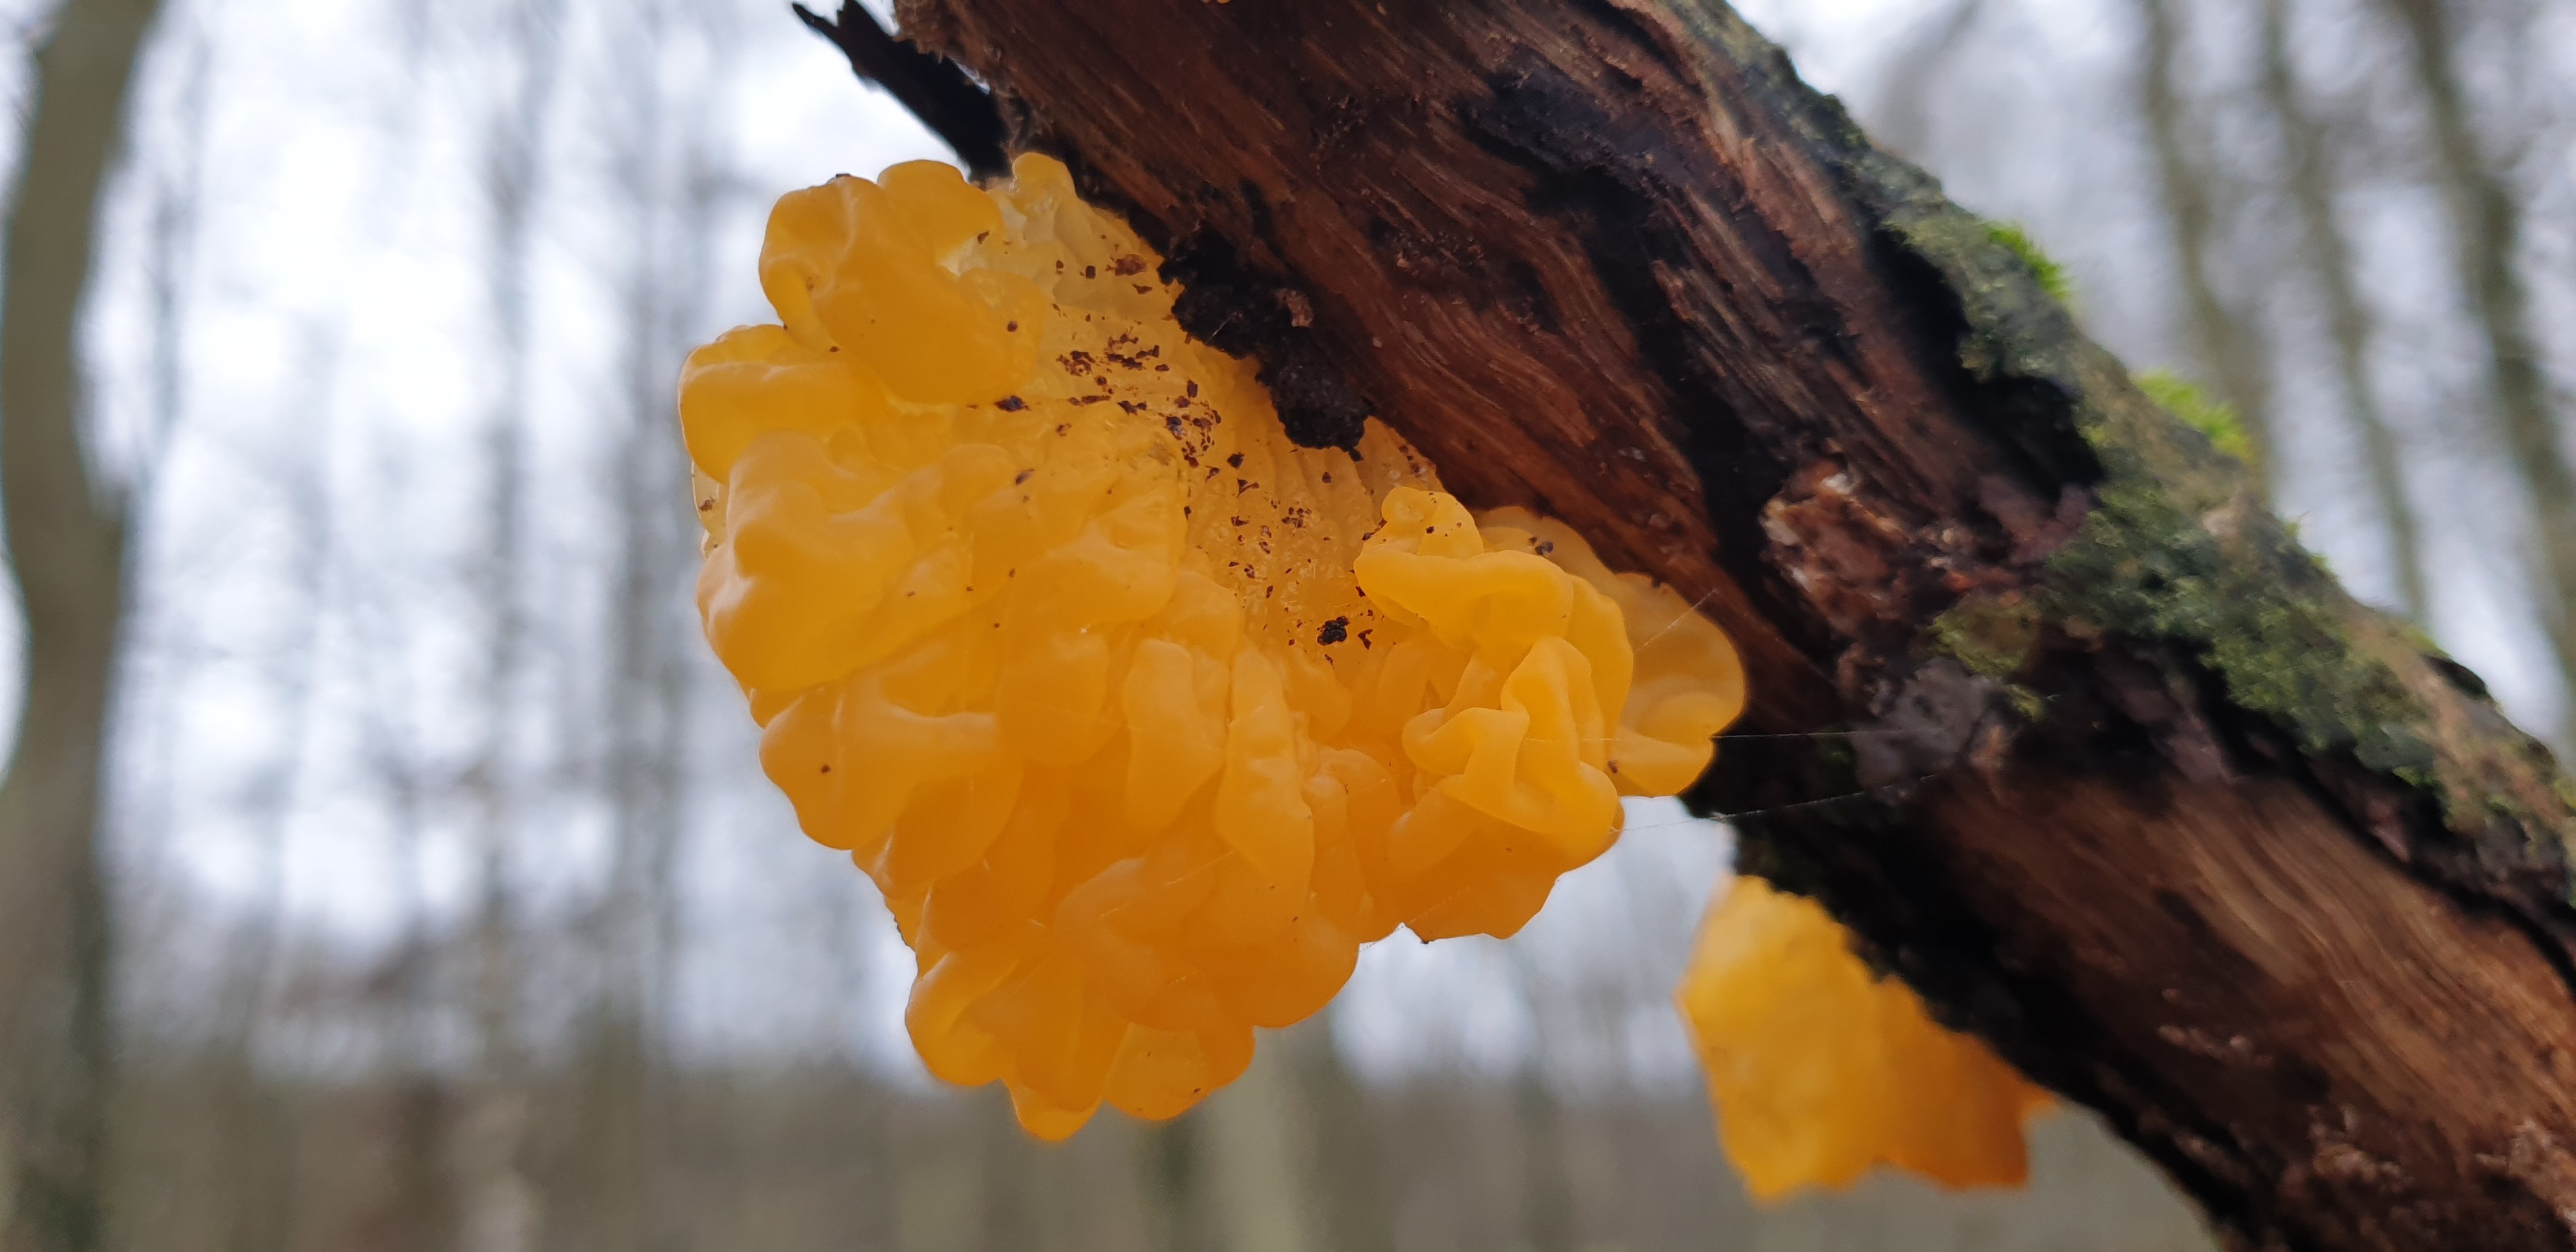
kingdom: Fungi
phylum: Basidiomycota
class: Tremellomycetes
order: Tremellales
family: Tremellaceae
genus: Tremella
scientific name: Tremella mesenterica
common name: gul bævresvamp
